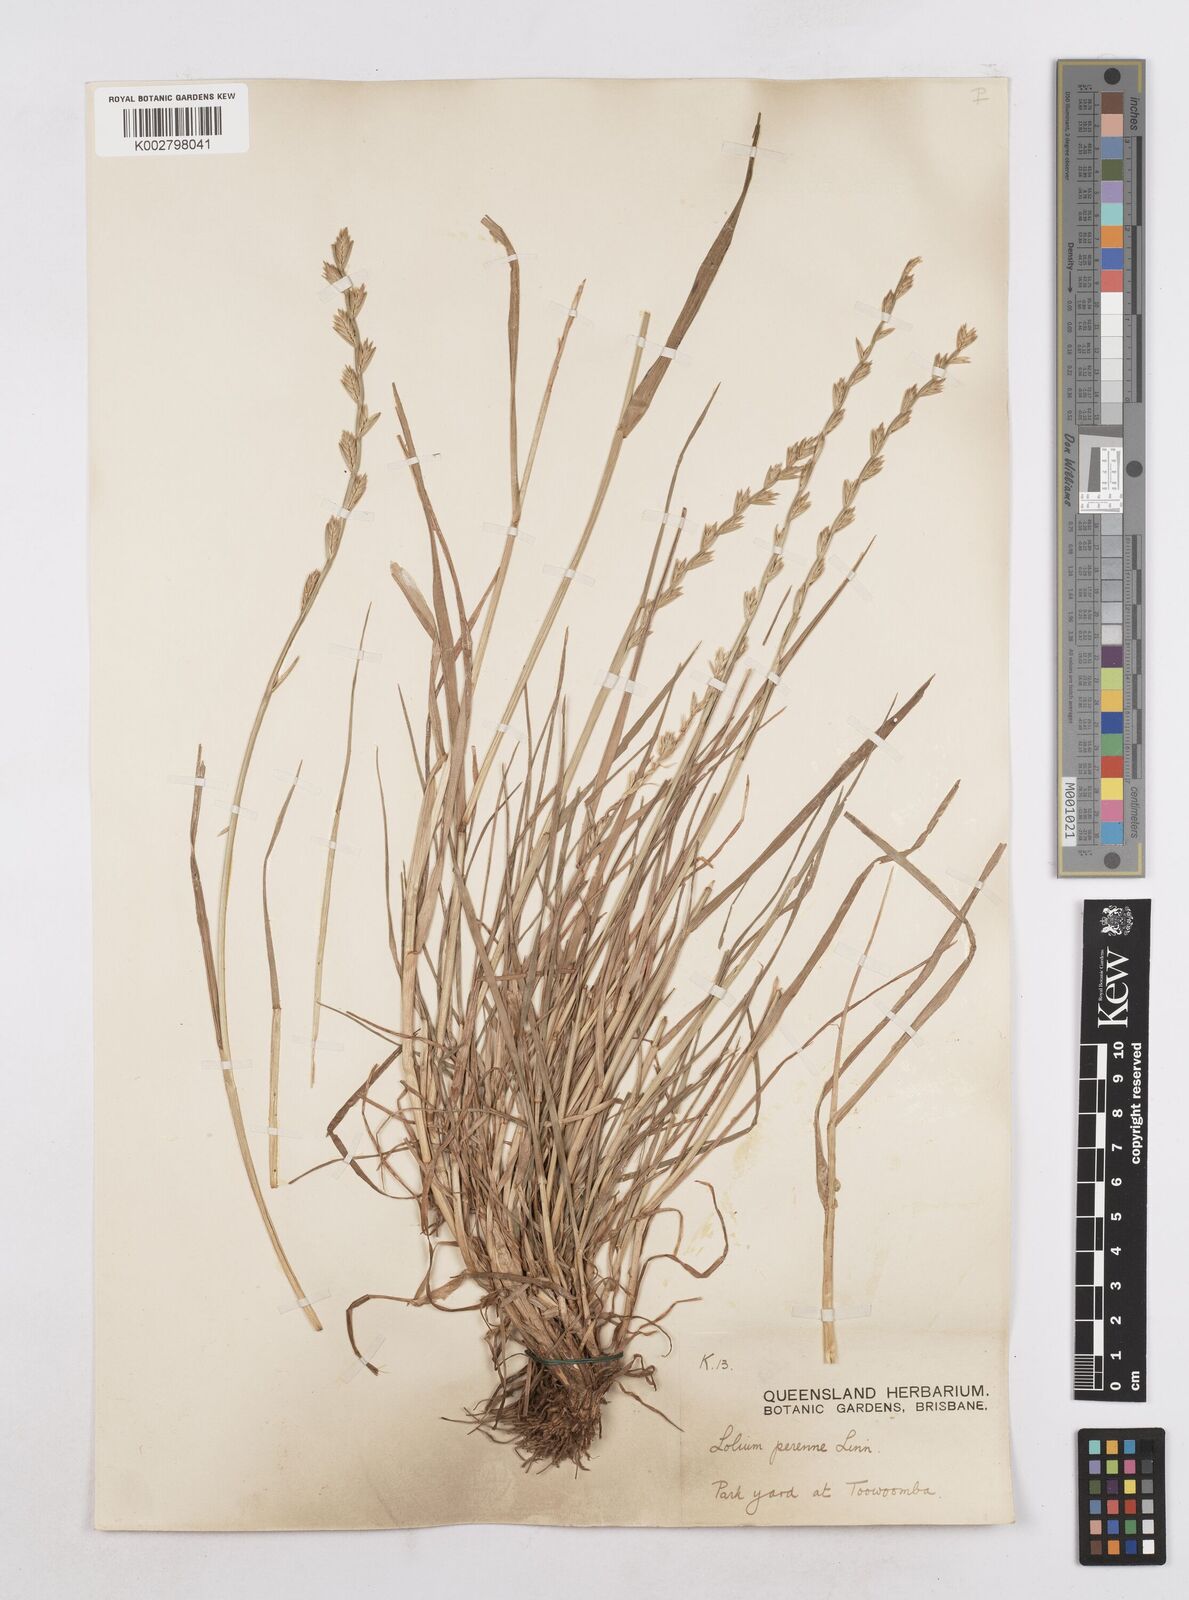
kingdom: Plantae
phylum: Tracheophyta
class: Liliopsida
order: Poales
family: Poaceae
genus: Lolium
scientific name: Lolium perenne
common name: Perennial ryegrass
